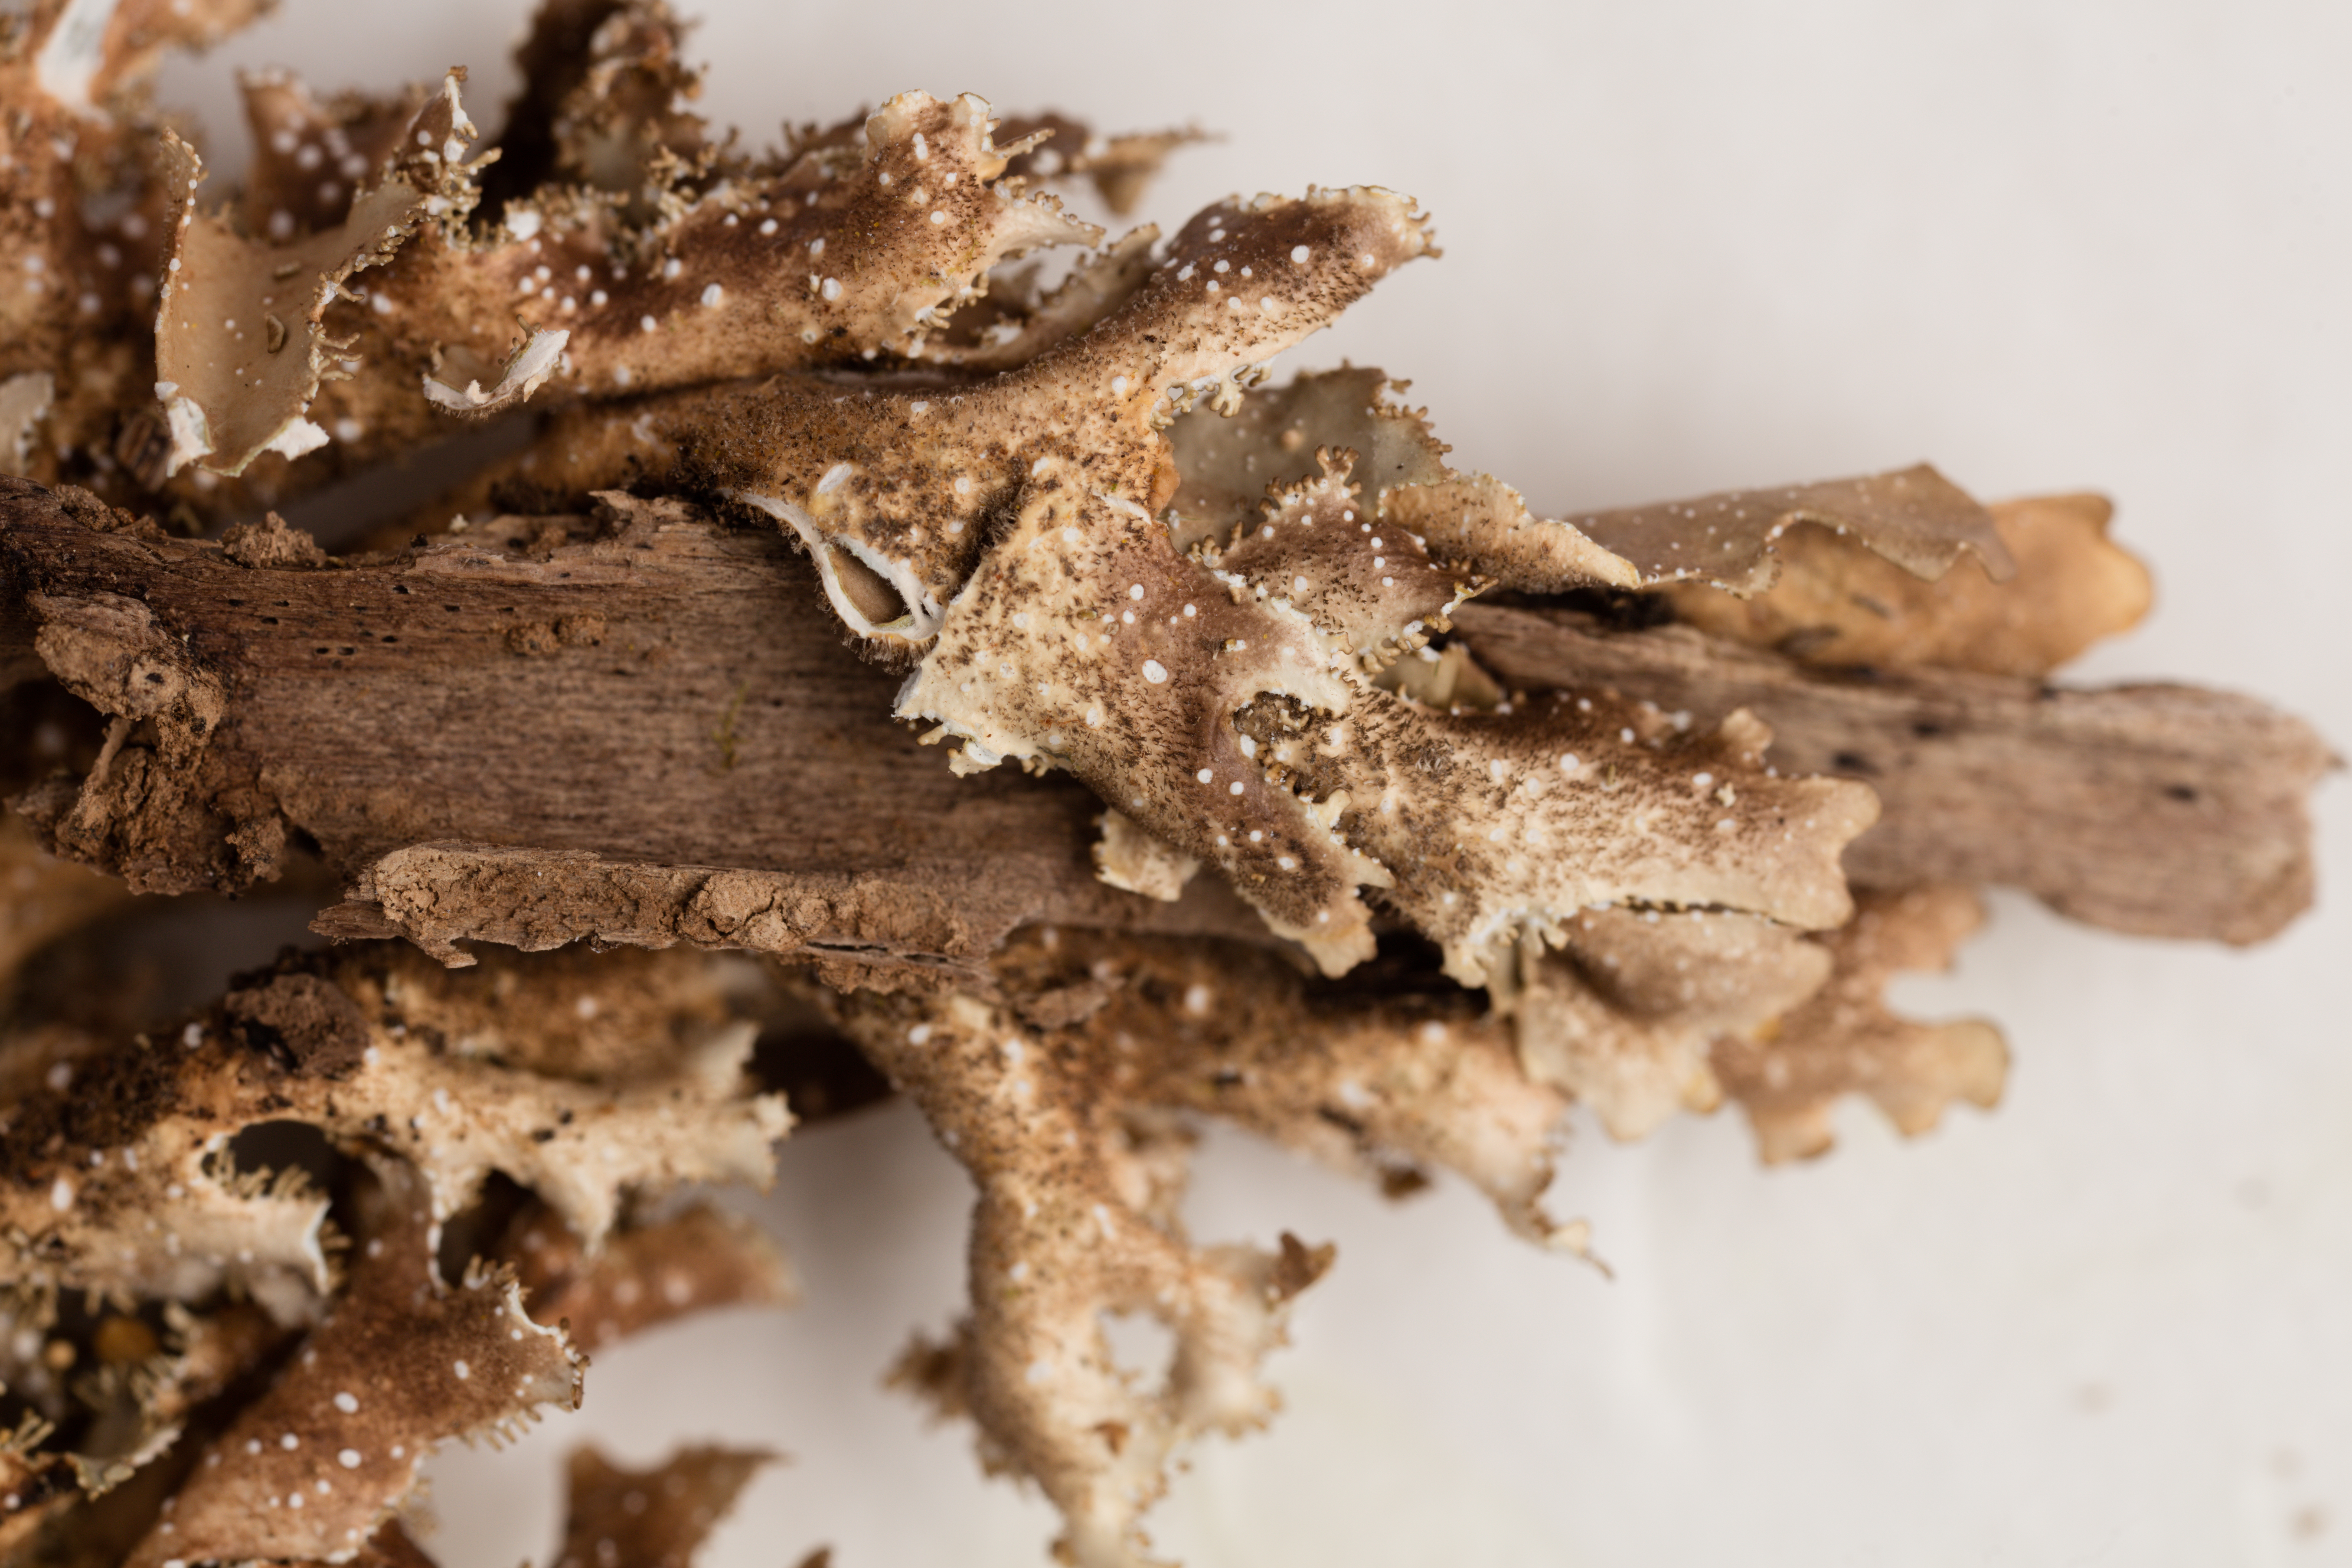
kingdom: Fungi
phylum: Ascomycota
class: Lecanoromycetes
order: Peltigerales
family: Lobariaceae
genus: Sticta
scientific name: Sticta
